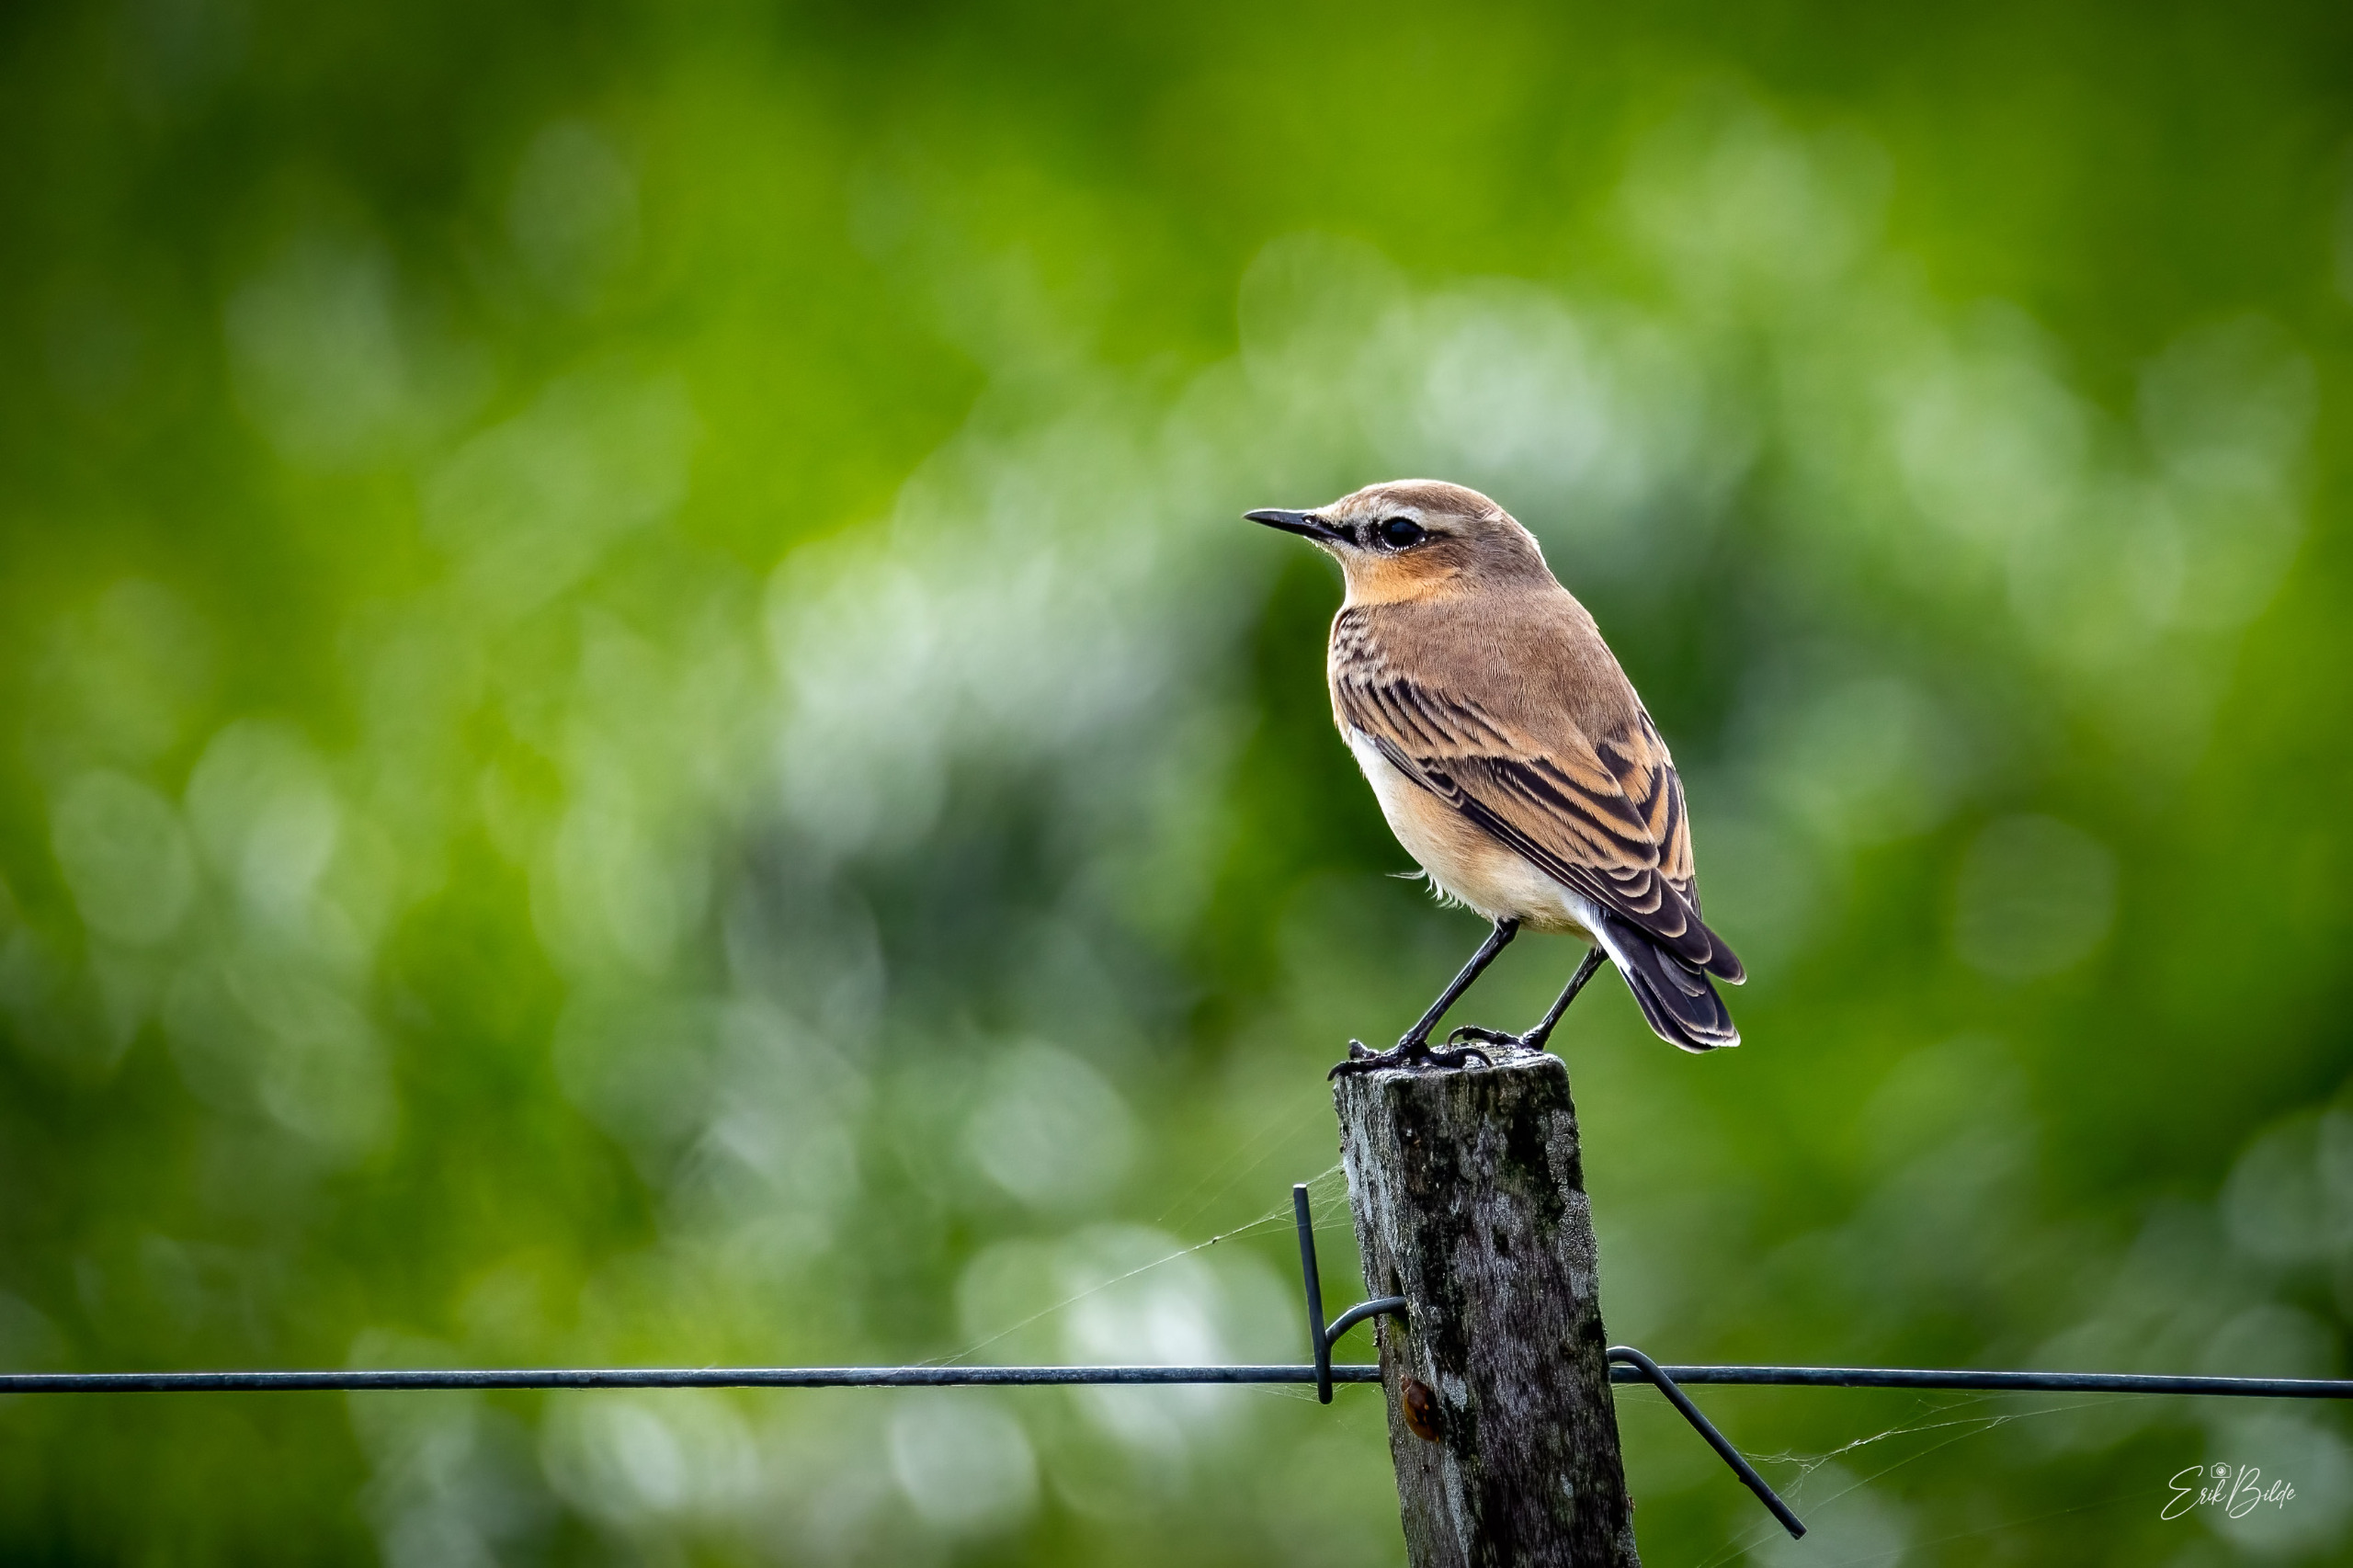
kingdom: Animalia
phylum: Chordata
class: Aves
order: Passeriformes
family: Muscicapidae
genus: Oenanthe
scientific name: Oenanthe oenanthe
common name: Stenpikker
